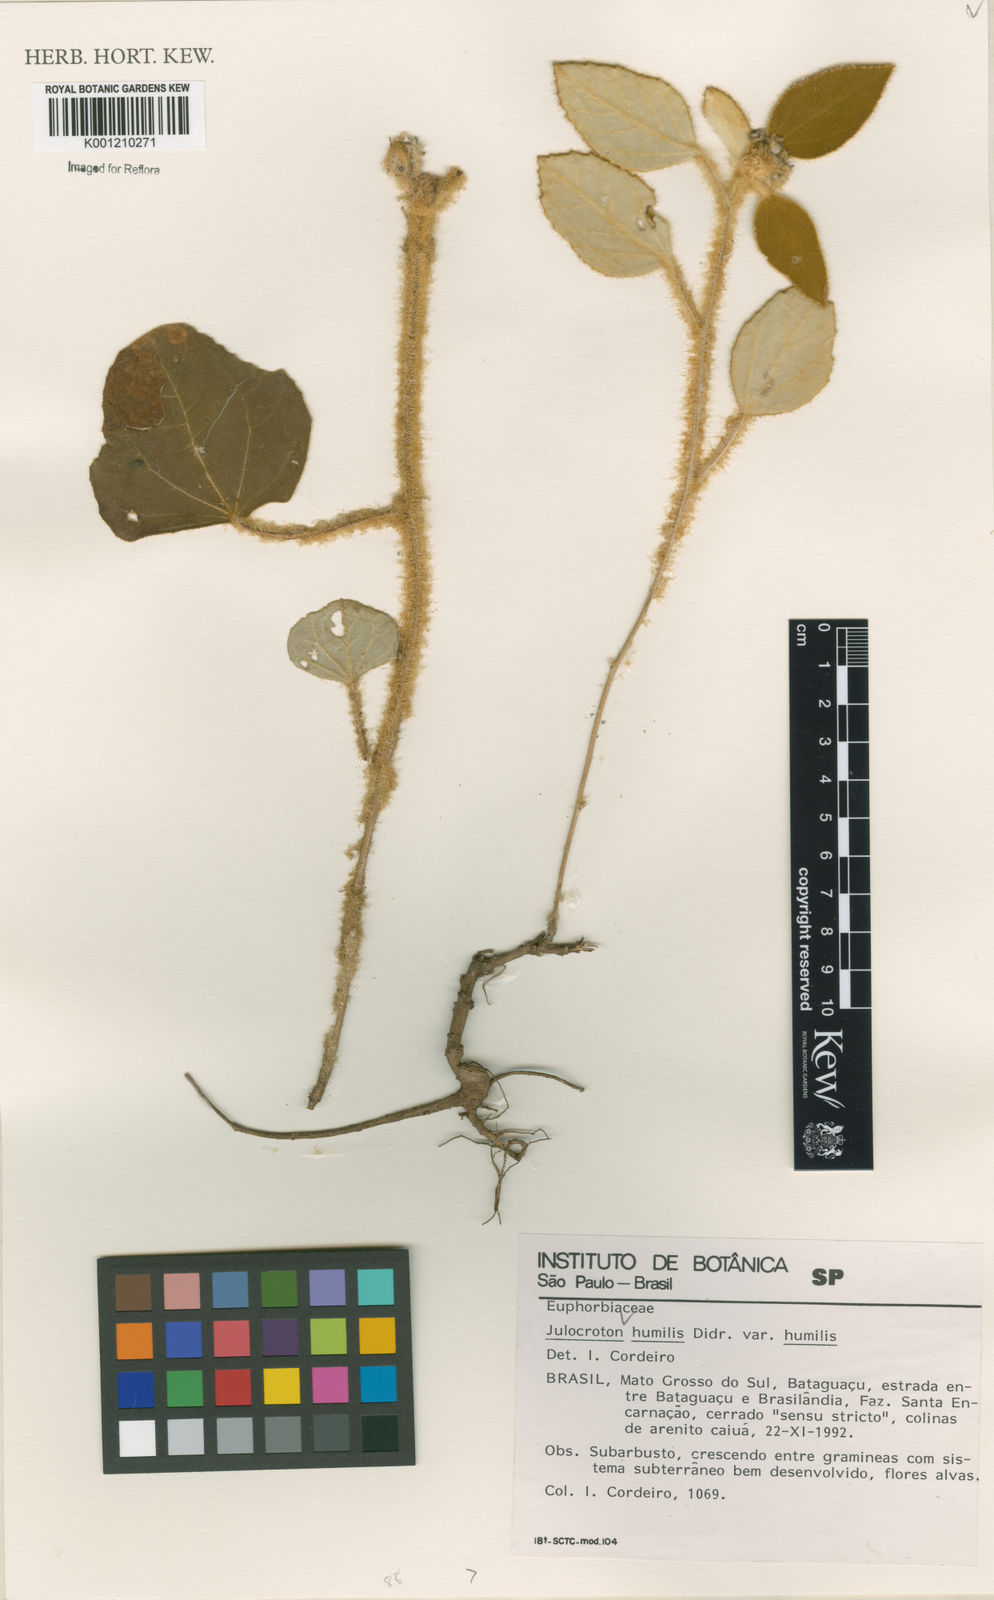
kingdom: Plantae
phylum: Tracheophyta
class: Magnoliopsida
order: Malpighiales
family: Euphorbiaceae
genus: Croton
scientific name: Croton solanaceus
